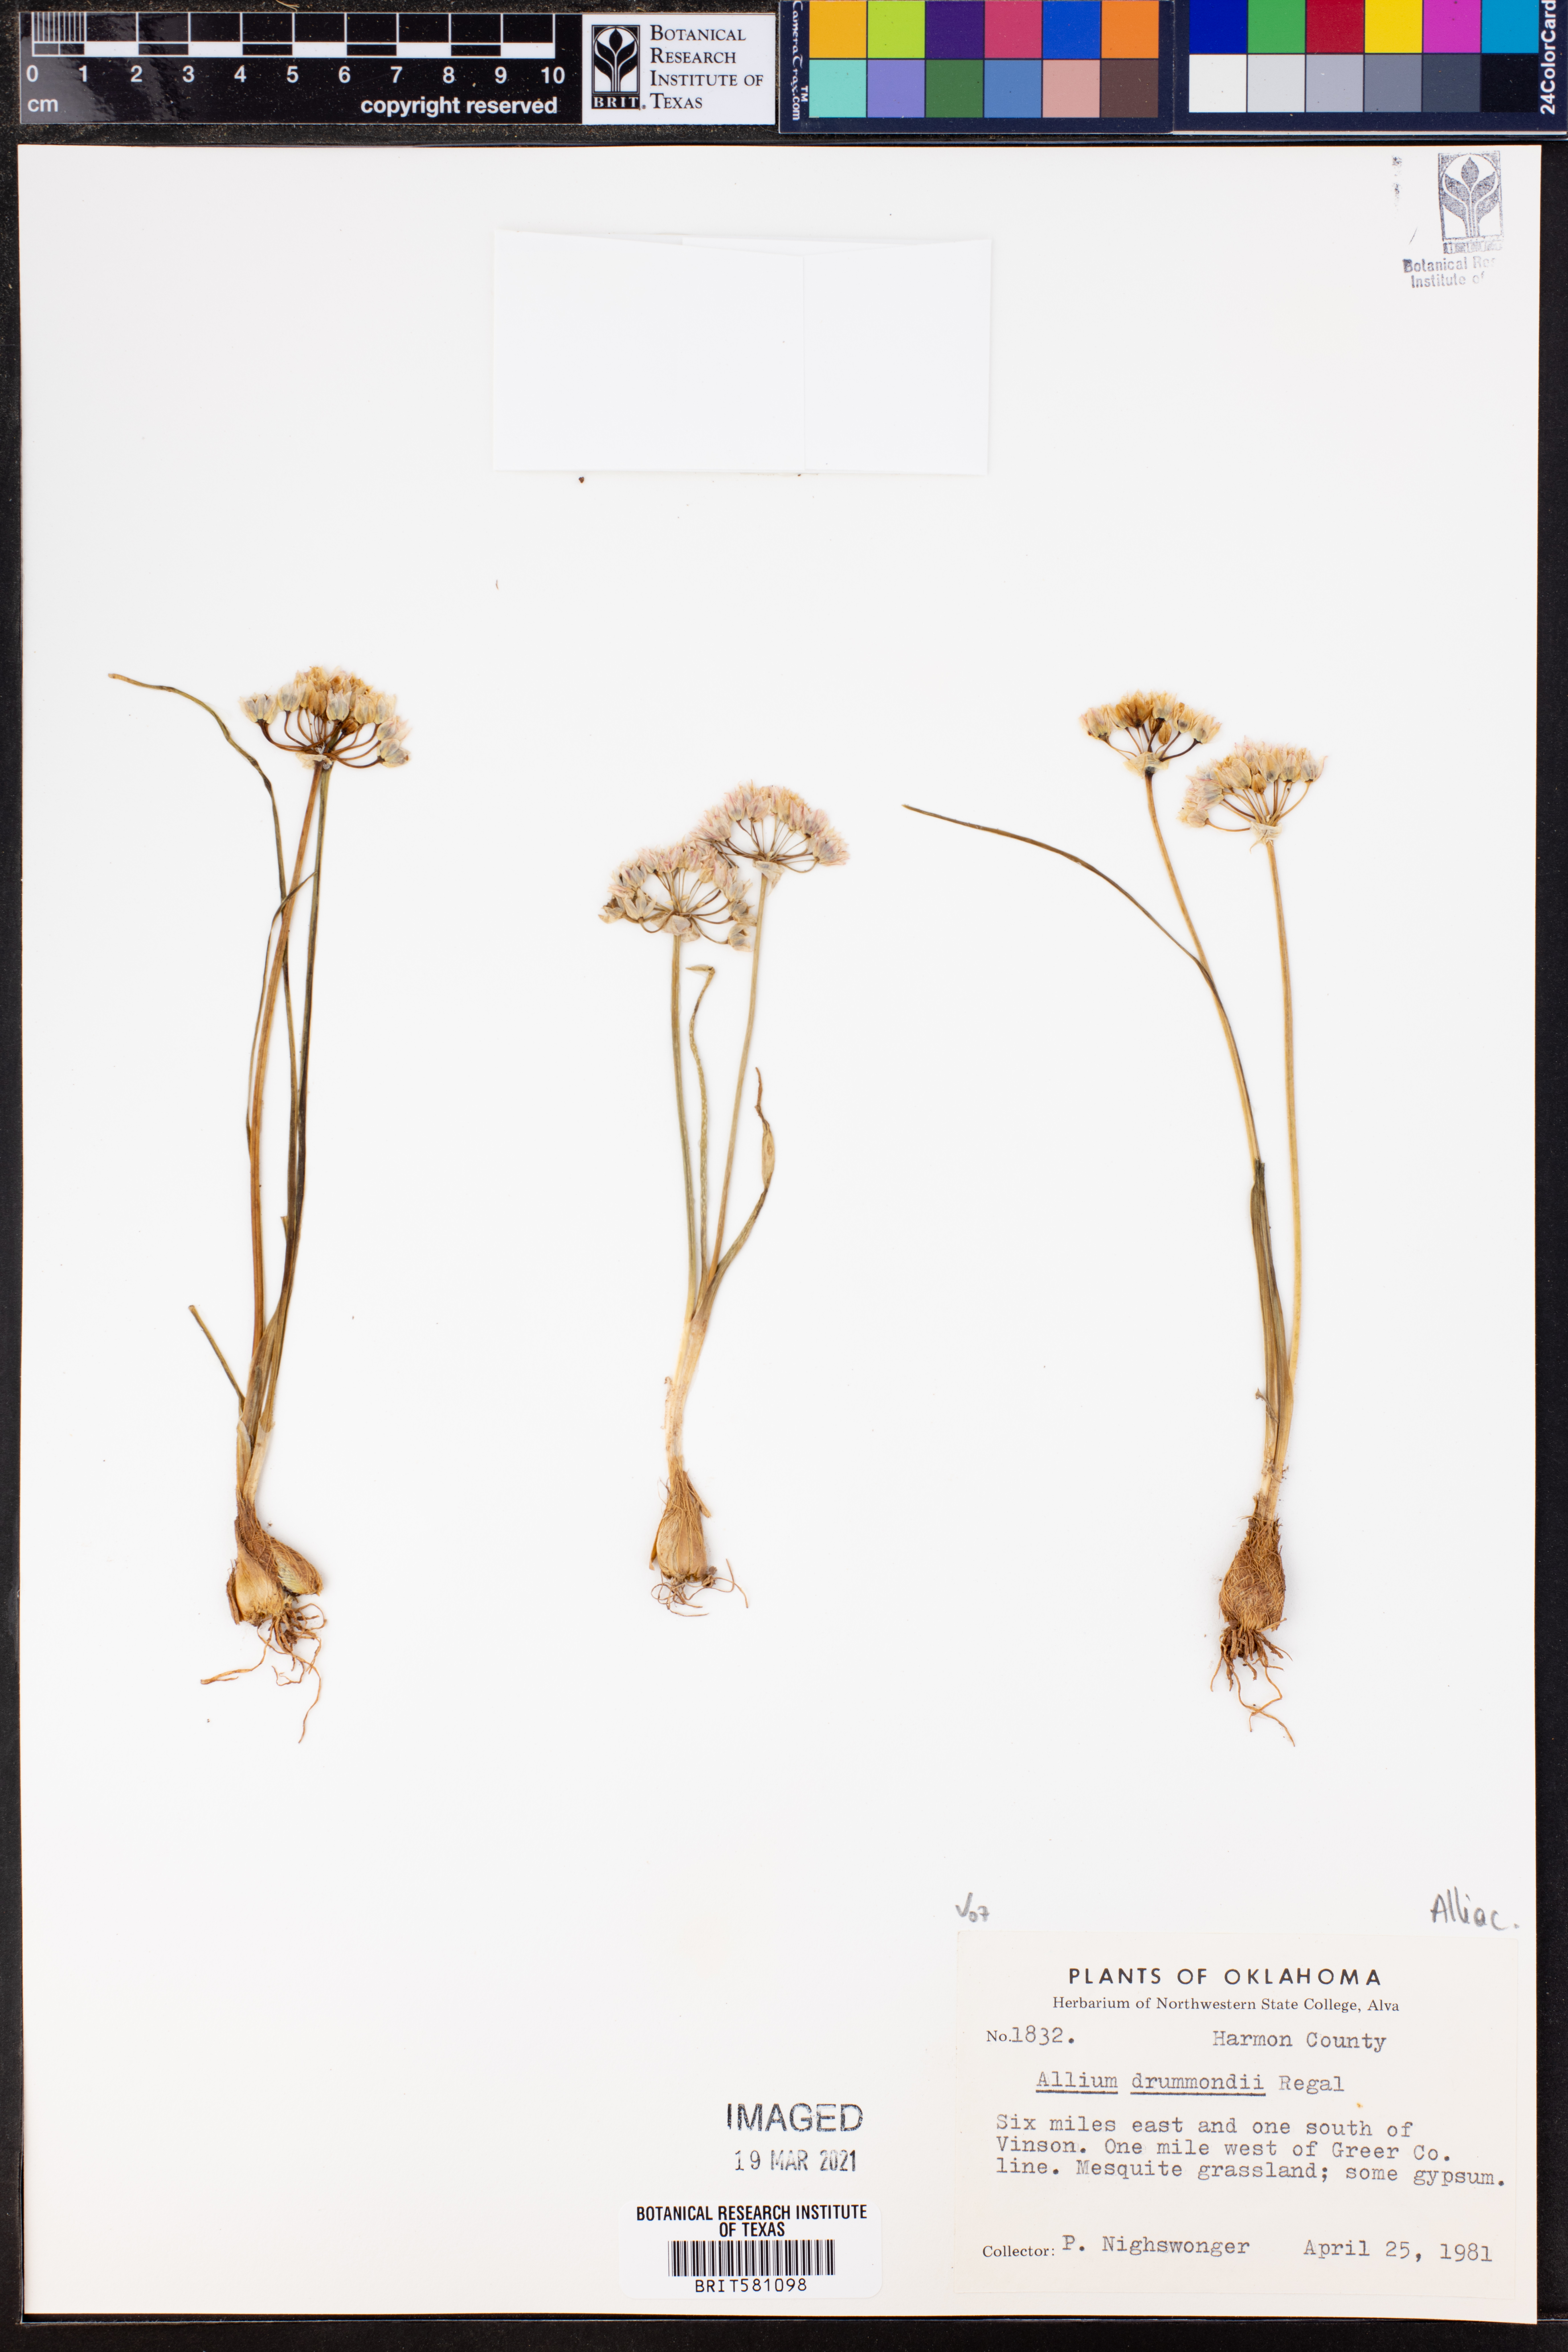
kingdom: Plantae
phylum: Tracheophyta
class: Liliopsida
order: Asparagales
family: Amaryllidaceae
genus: Allium
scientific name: Allium drummondii
